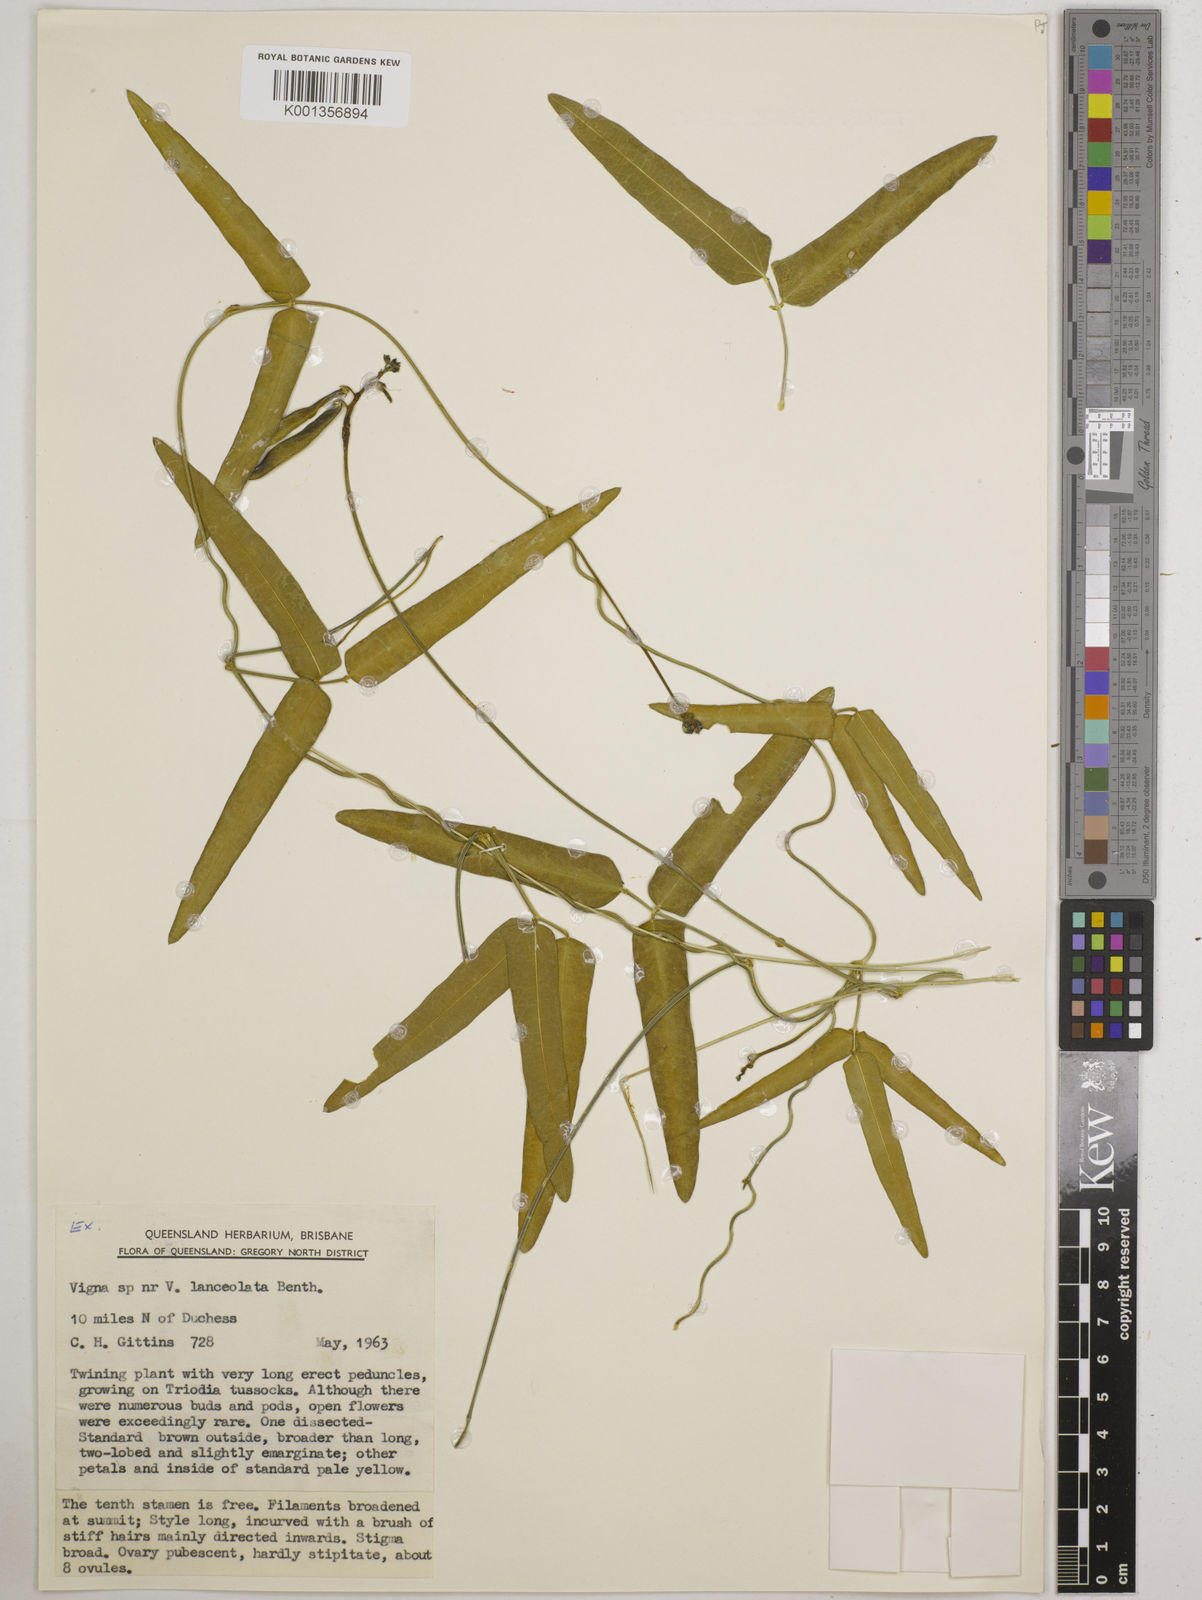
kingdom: Plantae
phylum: Tracheophyta
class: Magnoliopsida
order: Fabales
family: Fabaceae
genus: Vigna
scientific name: Vigna lanceolata
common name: Maloga-bean
